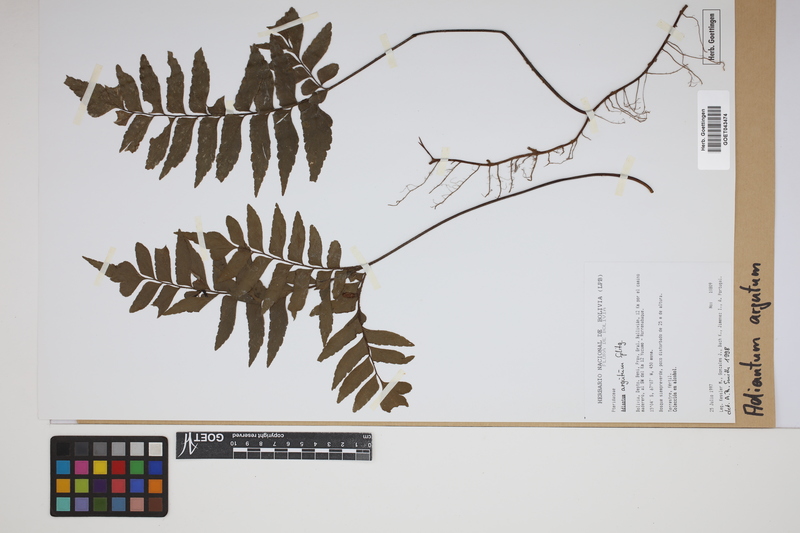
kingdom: Plantae
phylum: Tracheophyta
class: Polypodiopsida
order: Polypodiales
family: Pteridaceae
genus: Adiantum
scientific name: Adiantum argutum
